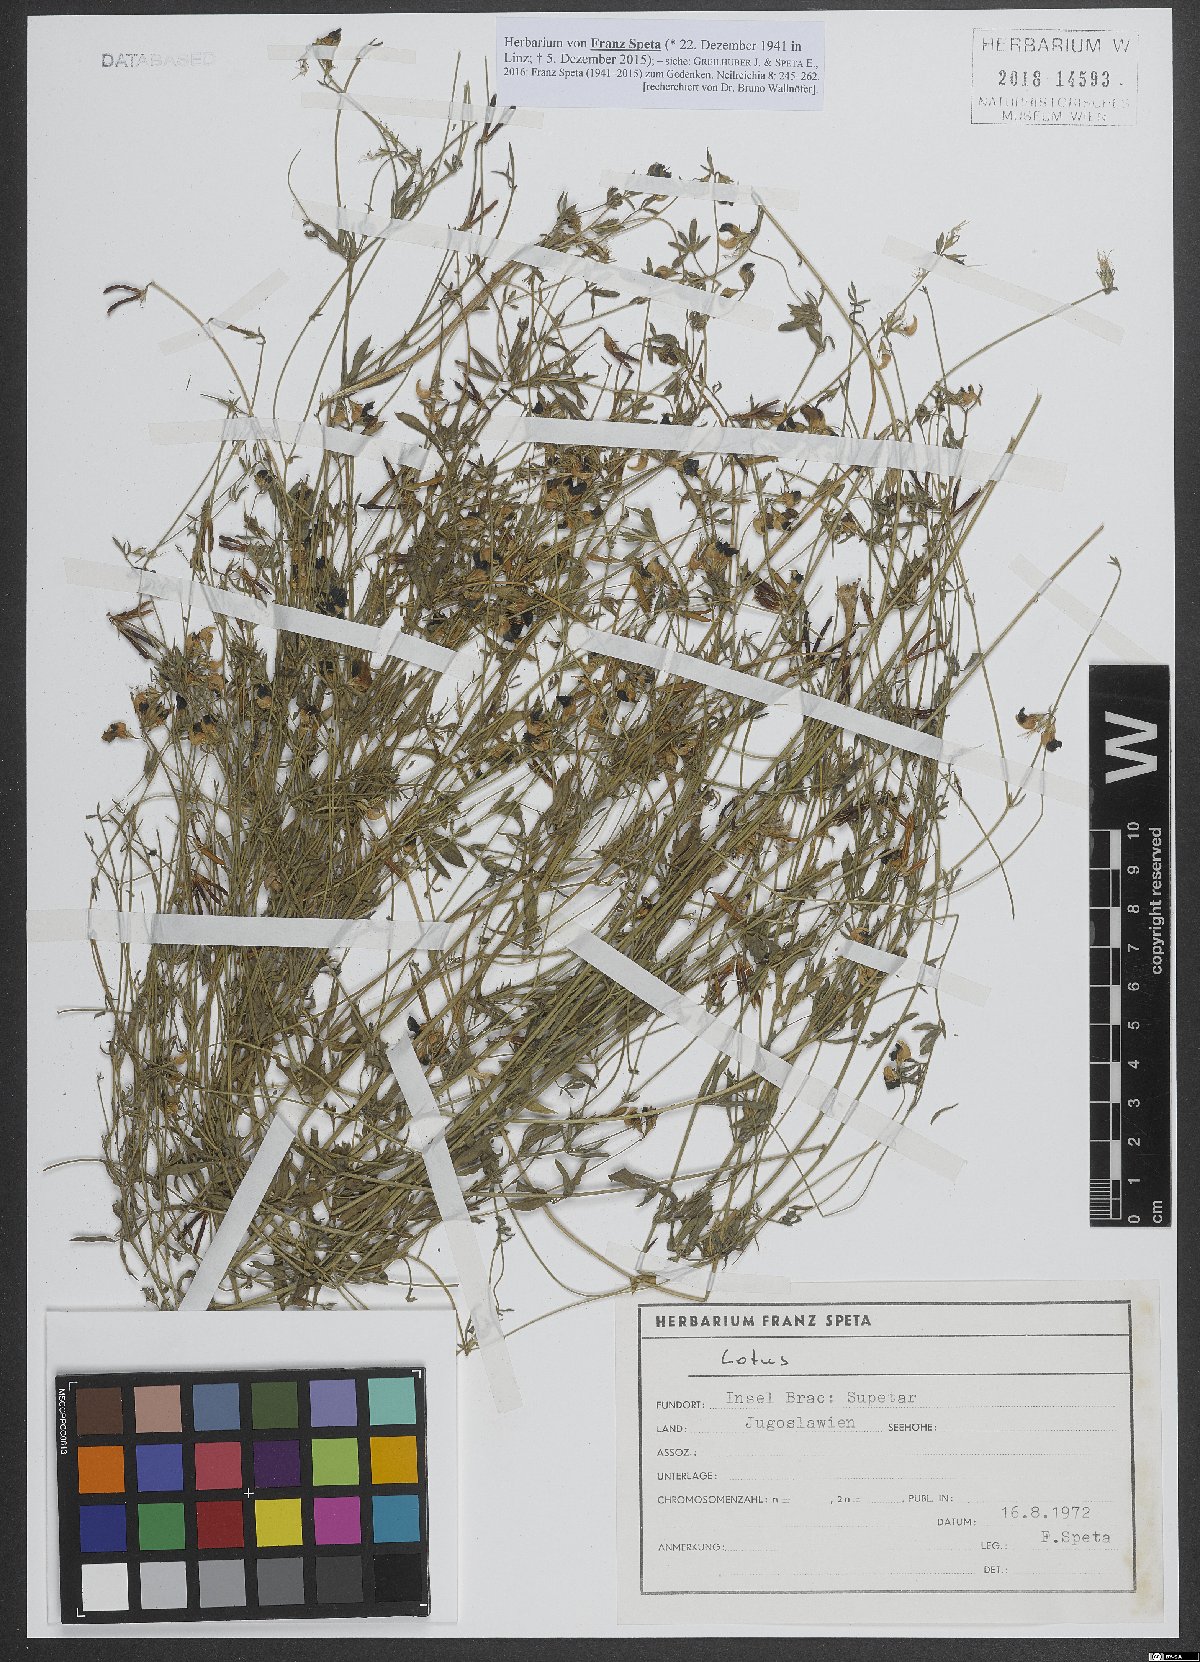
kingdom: Plantae
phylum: Tracheophyta
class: Magnoliopsida
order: Fabales
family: Fabaceae
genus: Lotus
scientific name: Lotus
